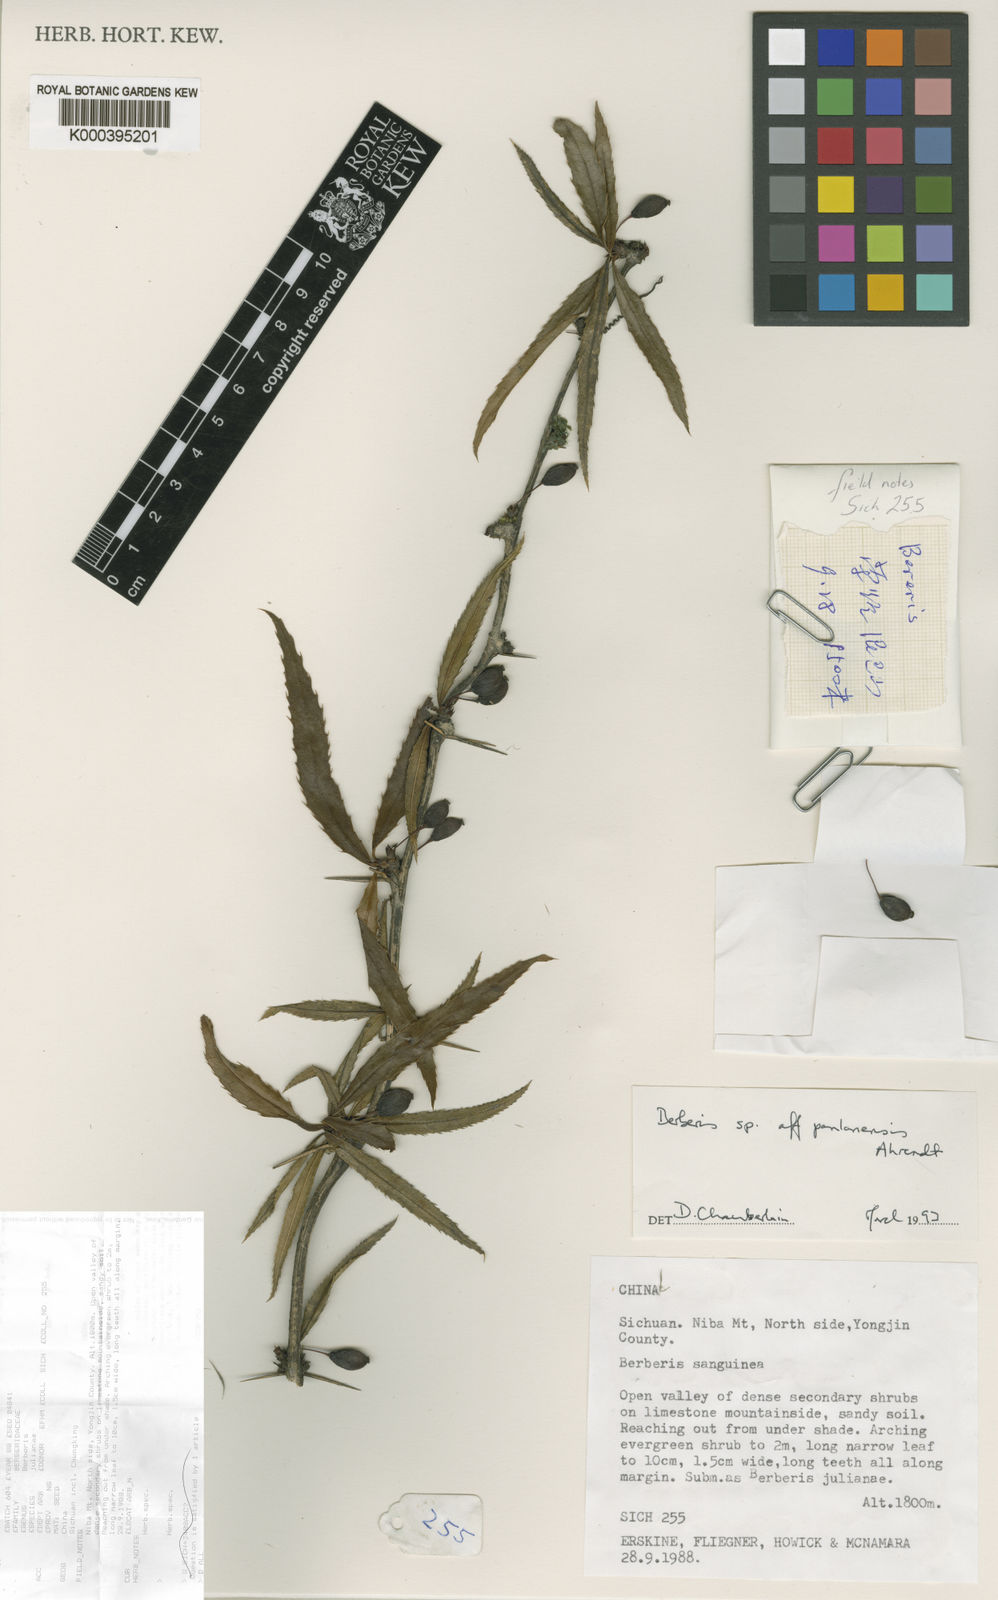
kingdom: Plantae
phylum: Tracheophyta
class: Magnoliopsida
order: Ranunculales
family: Berberidaceae
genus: Berberis
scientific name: Berberis yingjingensis
